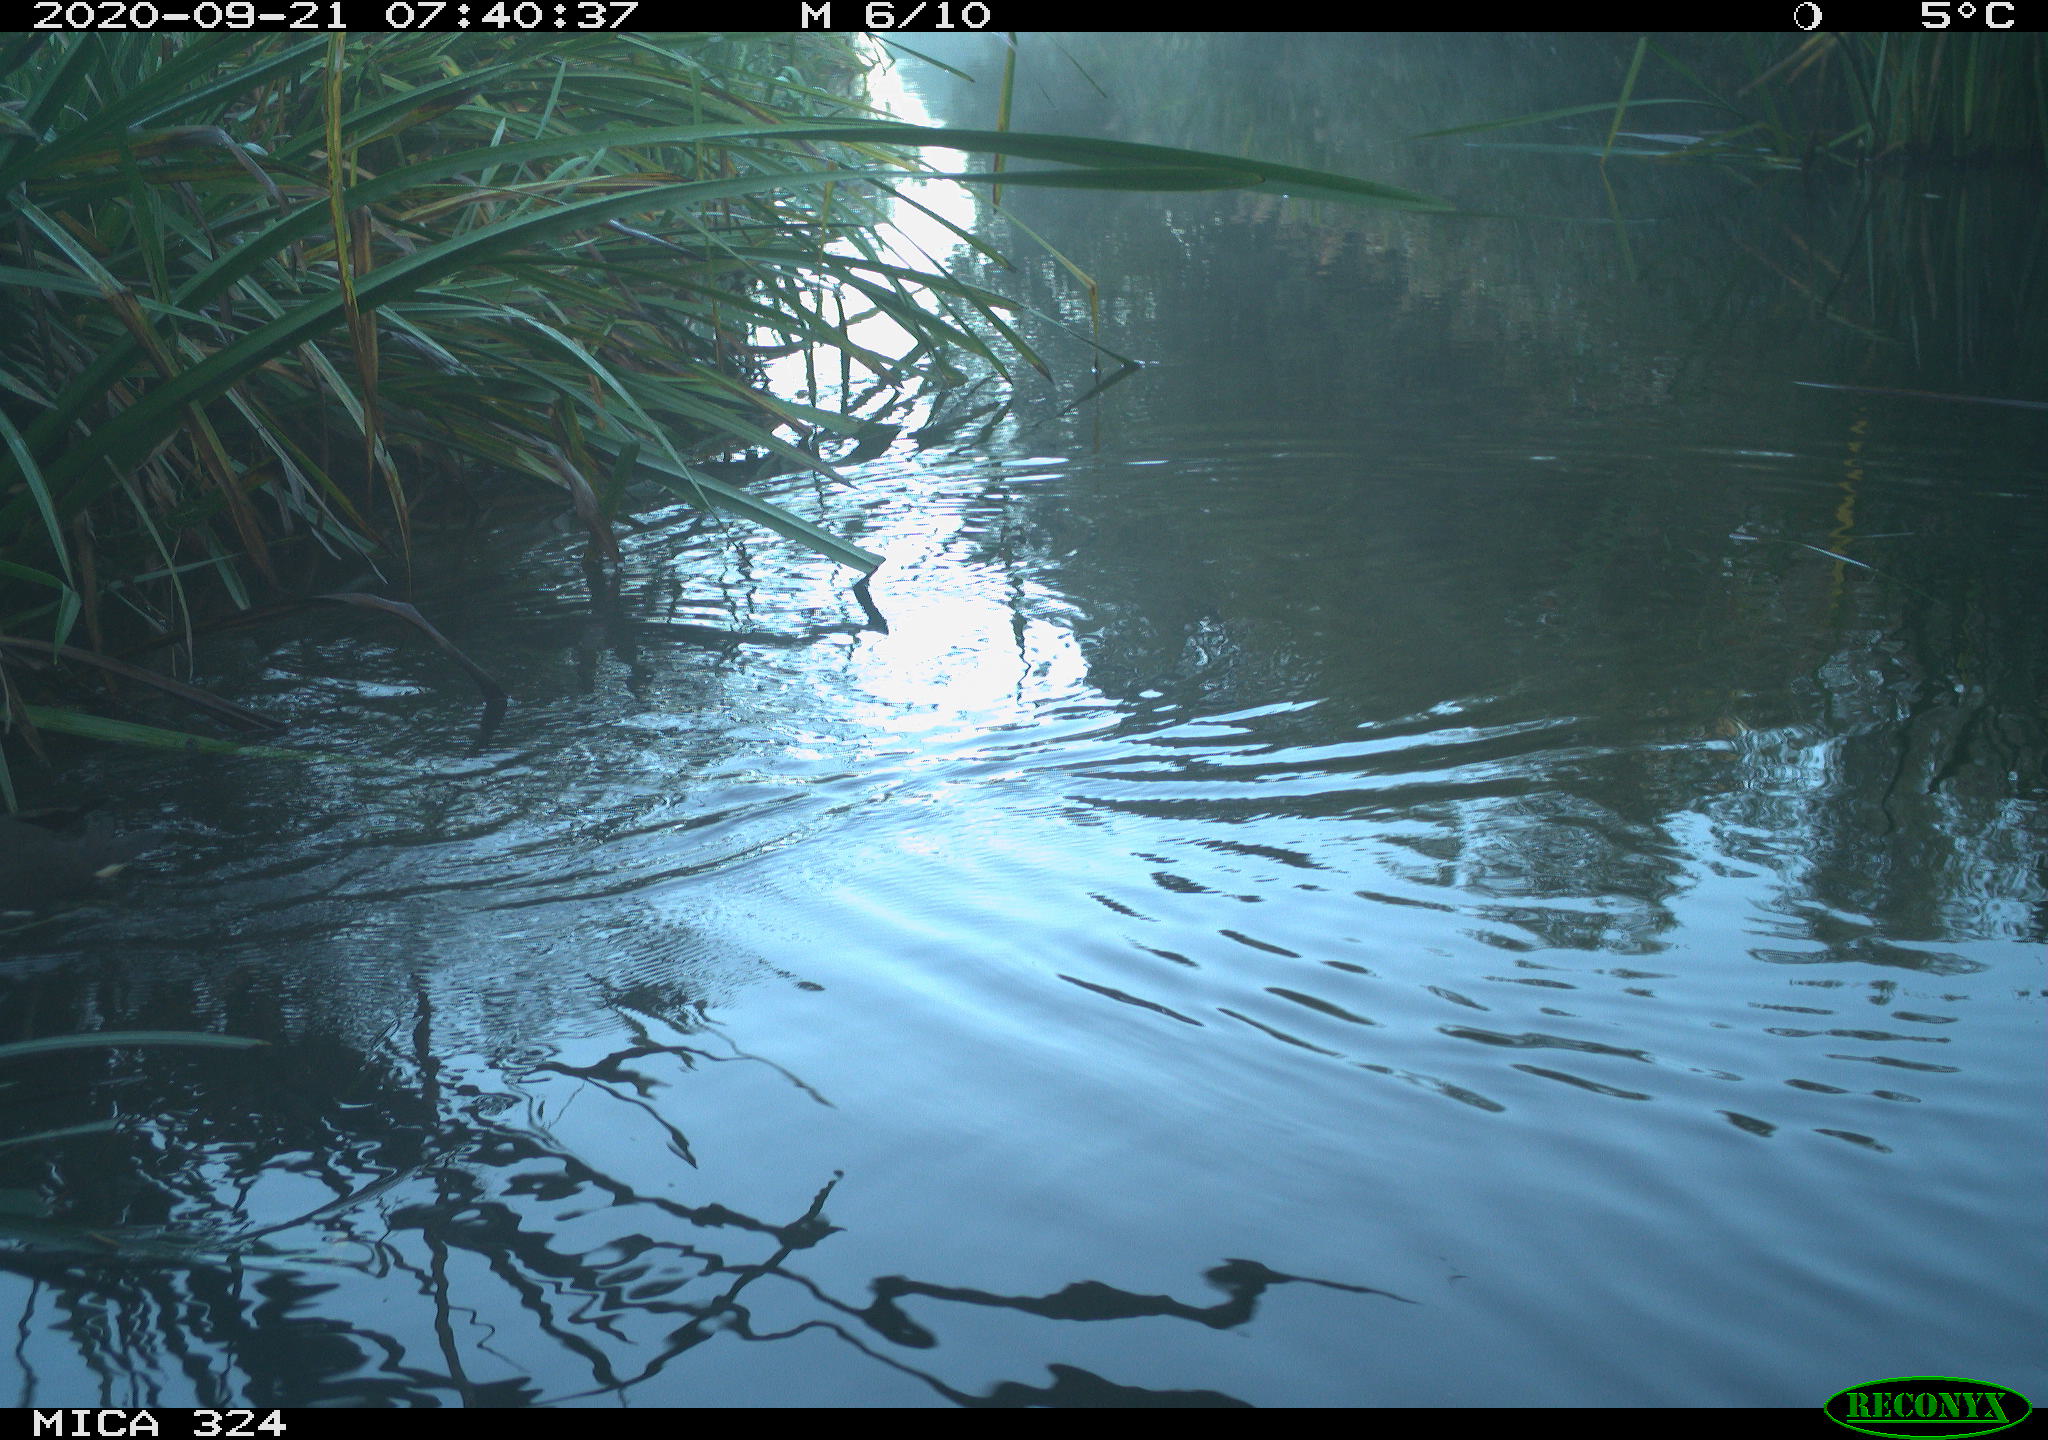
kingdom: Animalia
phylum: Chordata
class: Aves
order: Gruiformes
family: Rallidae
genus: Gallinula
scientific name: Gallinula chloropus
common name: Common moorhen
